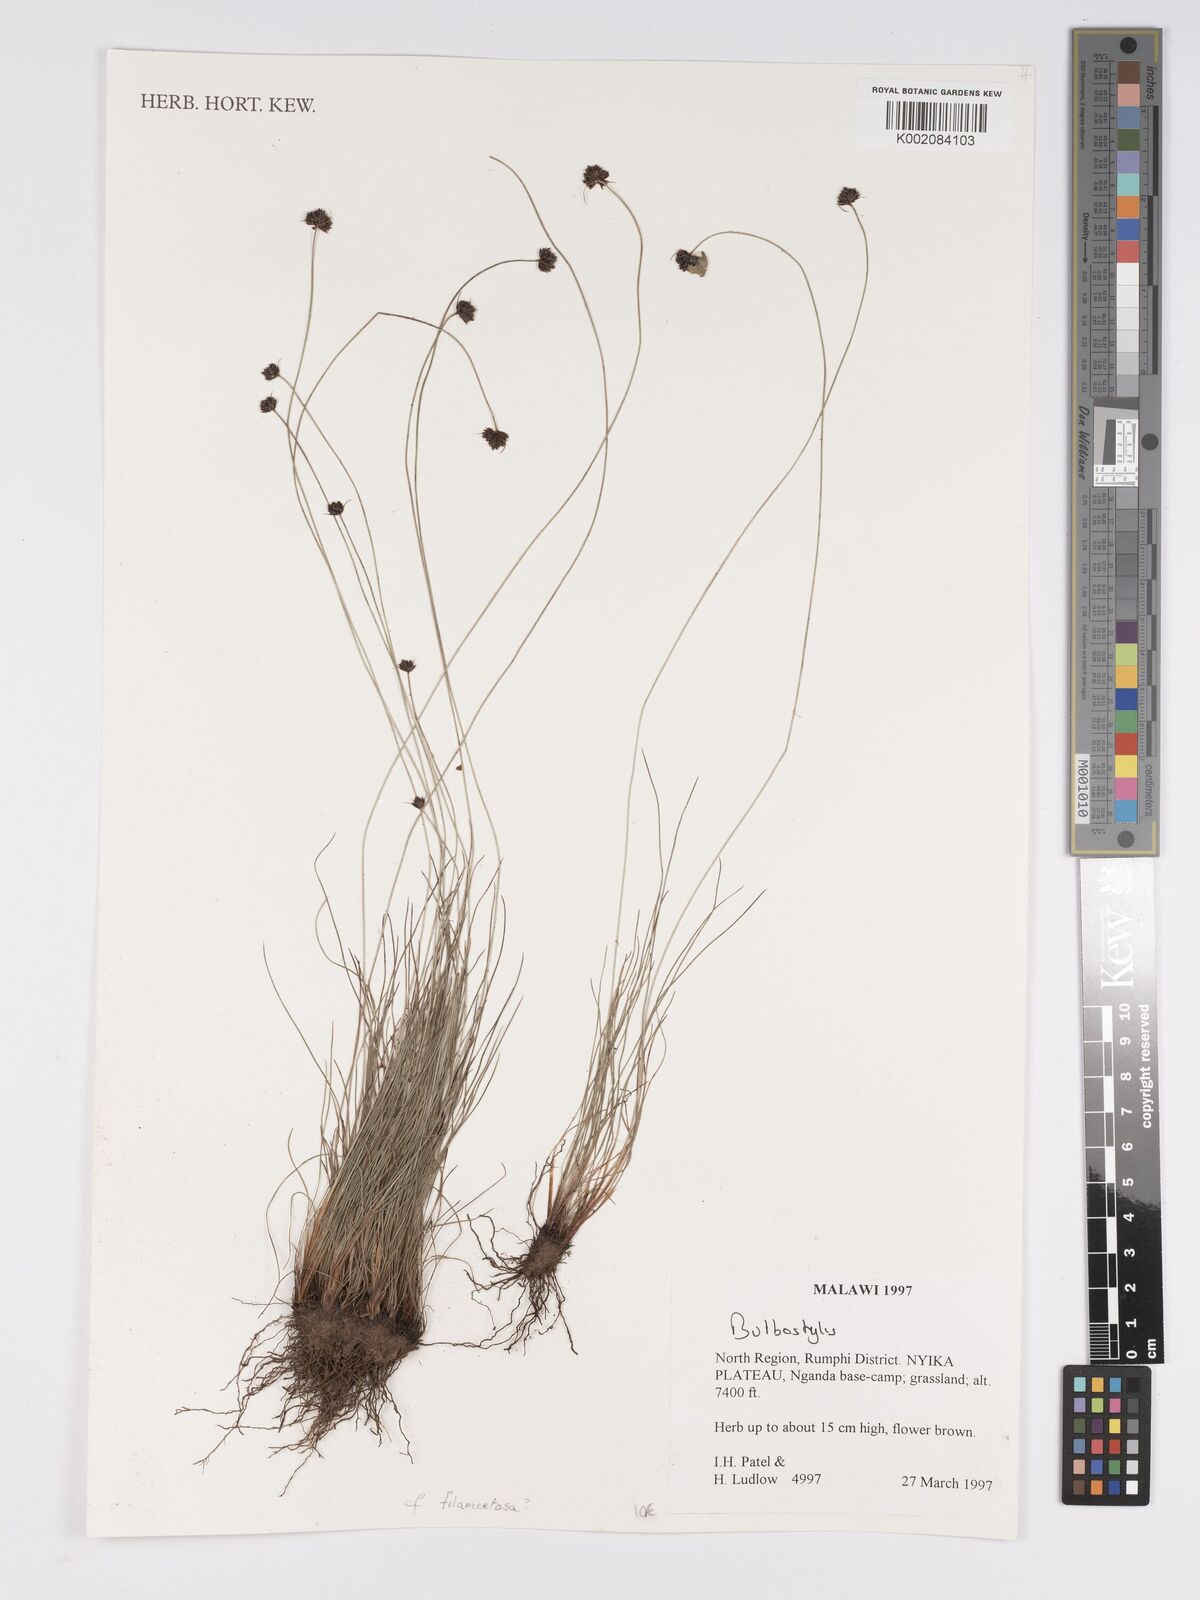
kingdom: Plantae
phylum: Tracheophyta
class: Liliopsida
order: Poales
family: Cyperaceae
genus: Bulbostylis
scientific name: Bulbostylis
